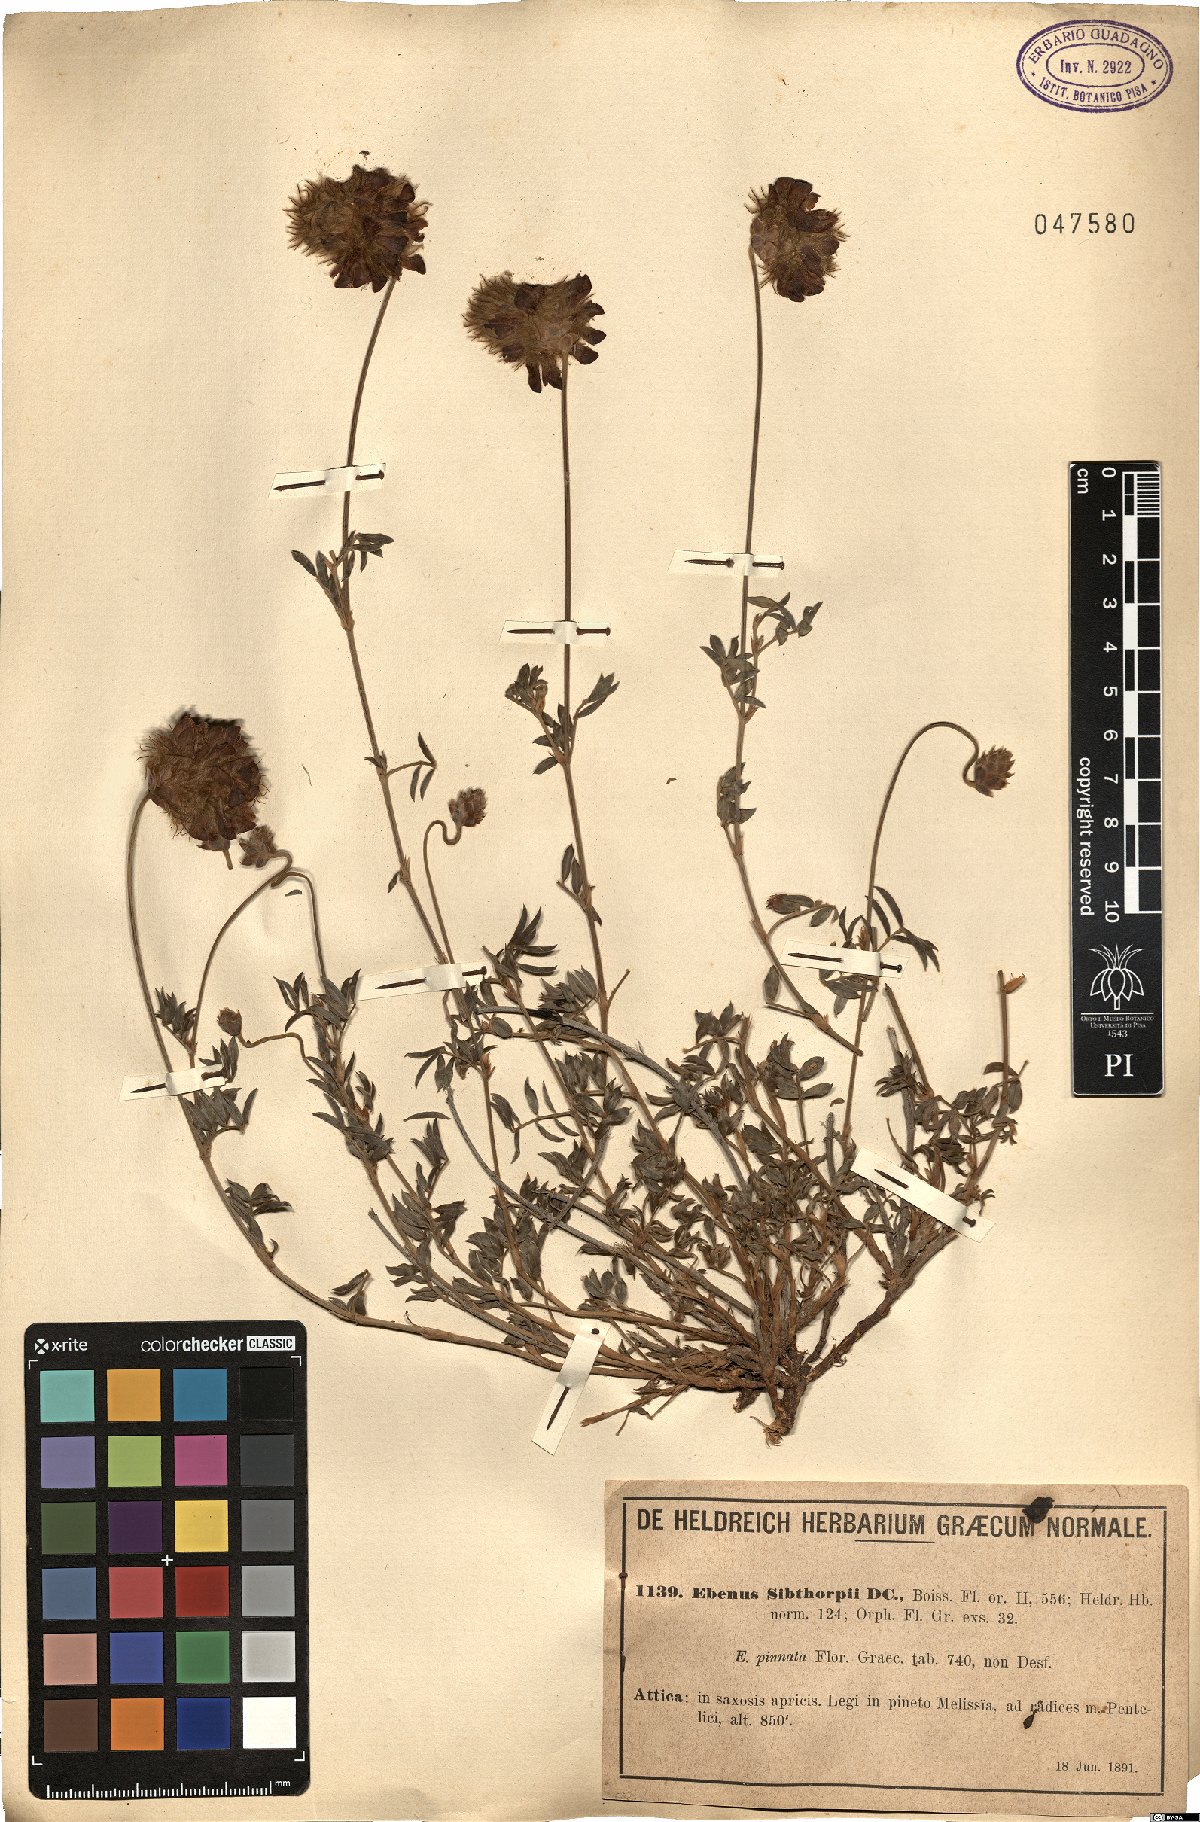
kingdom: Plantae
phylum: Tracheophyta
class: Magnoliopsida
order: Fabales
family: Fabaceae
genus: Ebenus
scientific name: Ebenus sibthorpii
